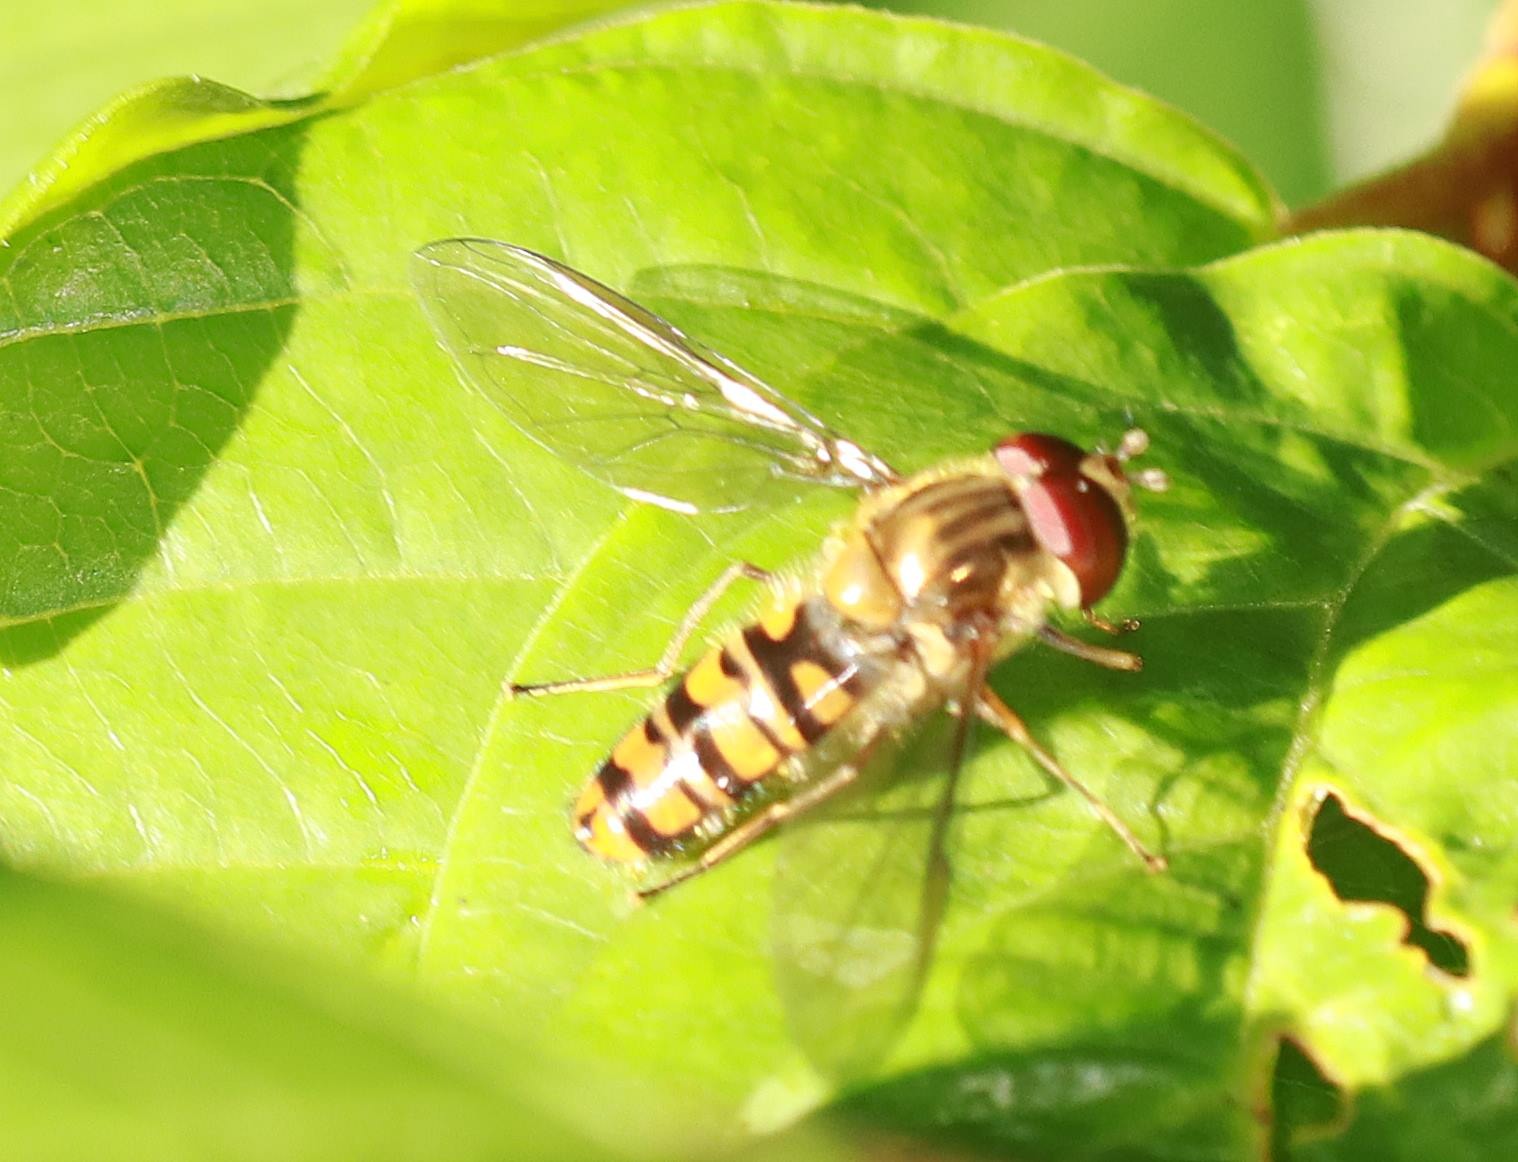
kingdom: Animalia
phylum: Arthropoda
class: Insecta
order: Diptera
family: Syrphidae
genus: Episyrphus
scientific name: Episyrphus balteatus
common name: Dobbeltbåndet svirreflue
